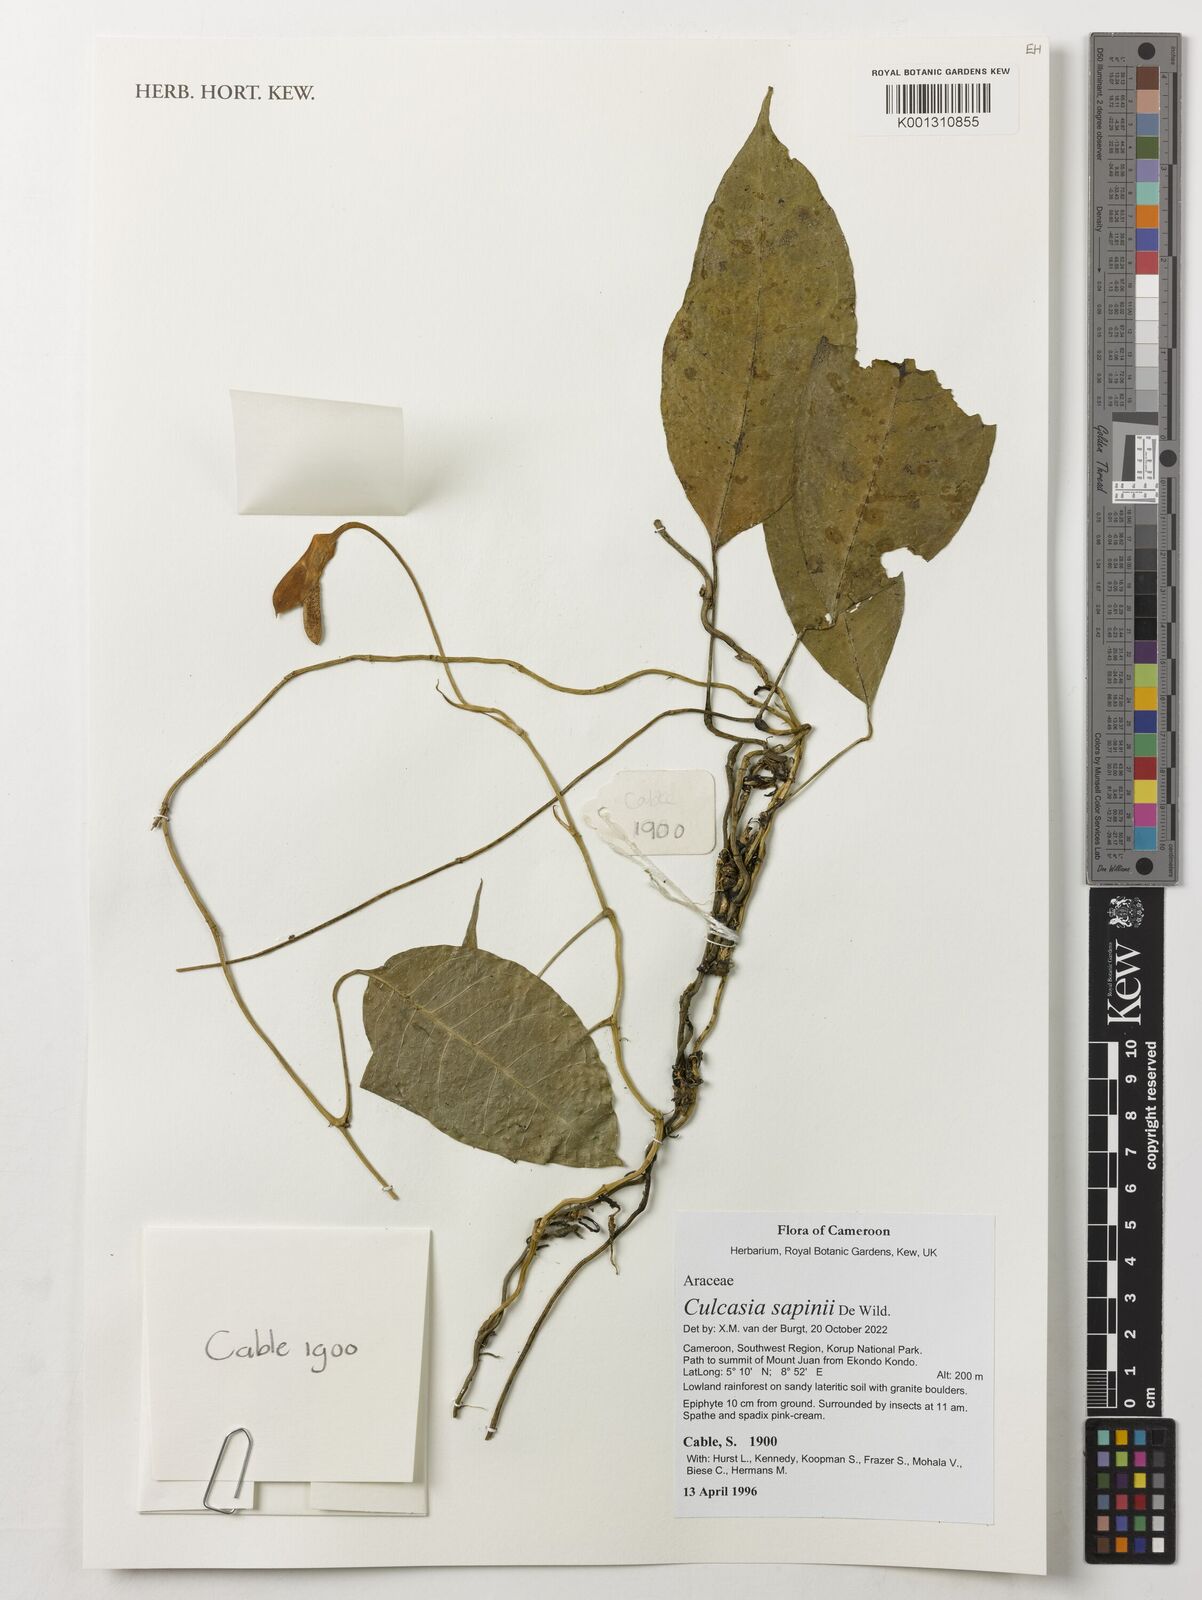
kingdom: Plantae
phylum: Tracheophyta
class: Liliopsida
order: Alismatales
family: Araceae
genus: Culcasia
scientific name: Culcasia seretii
